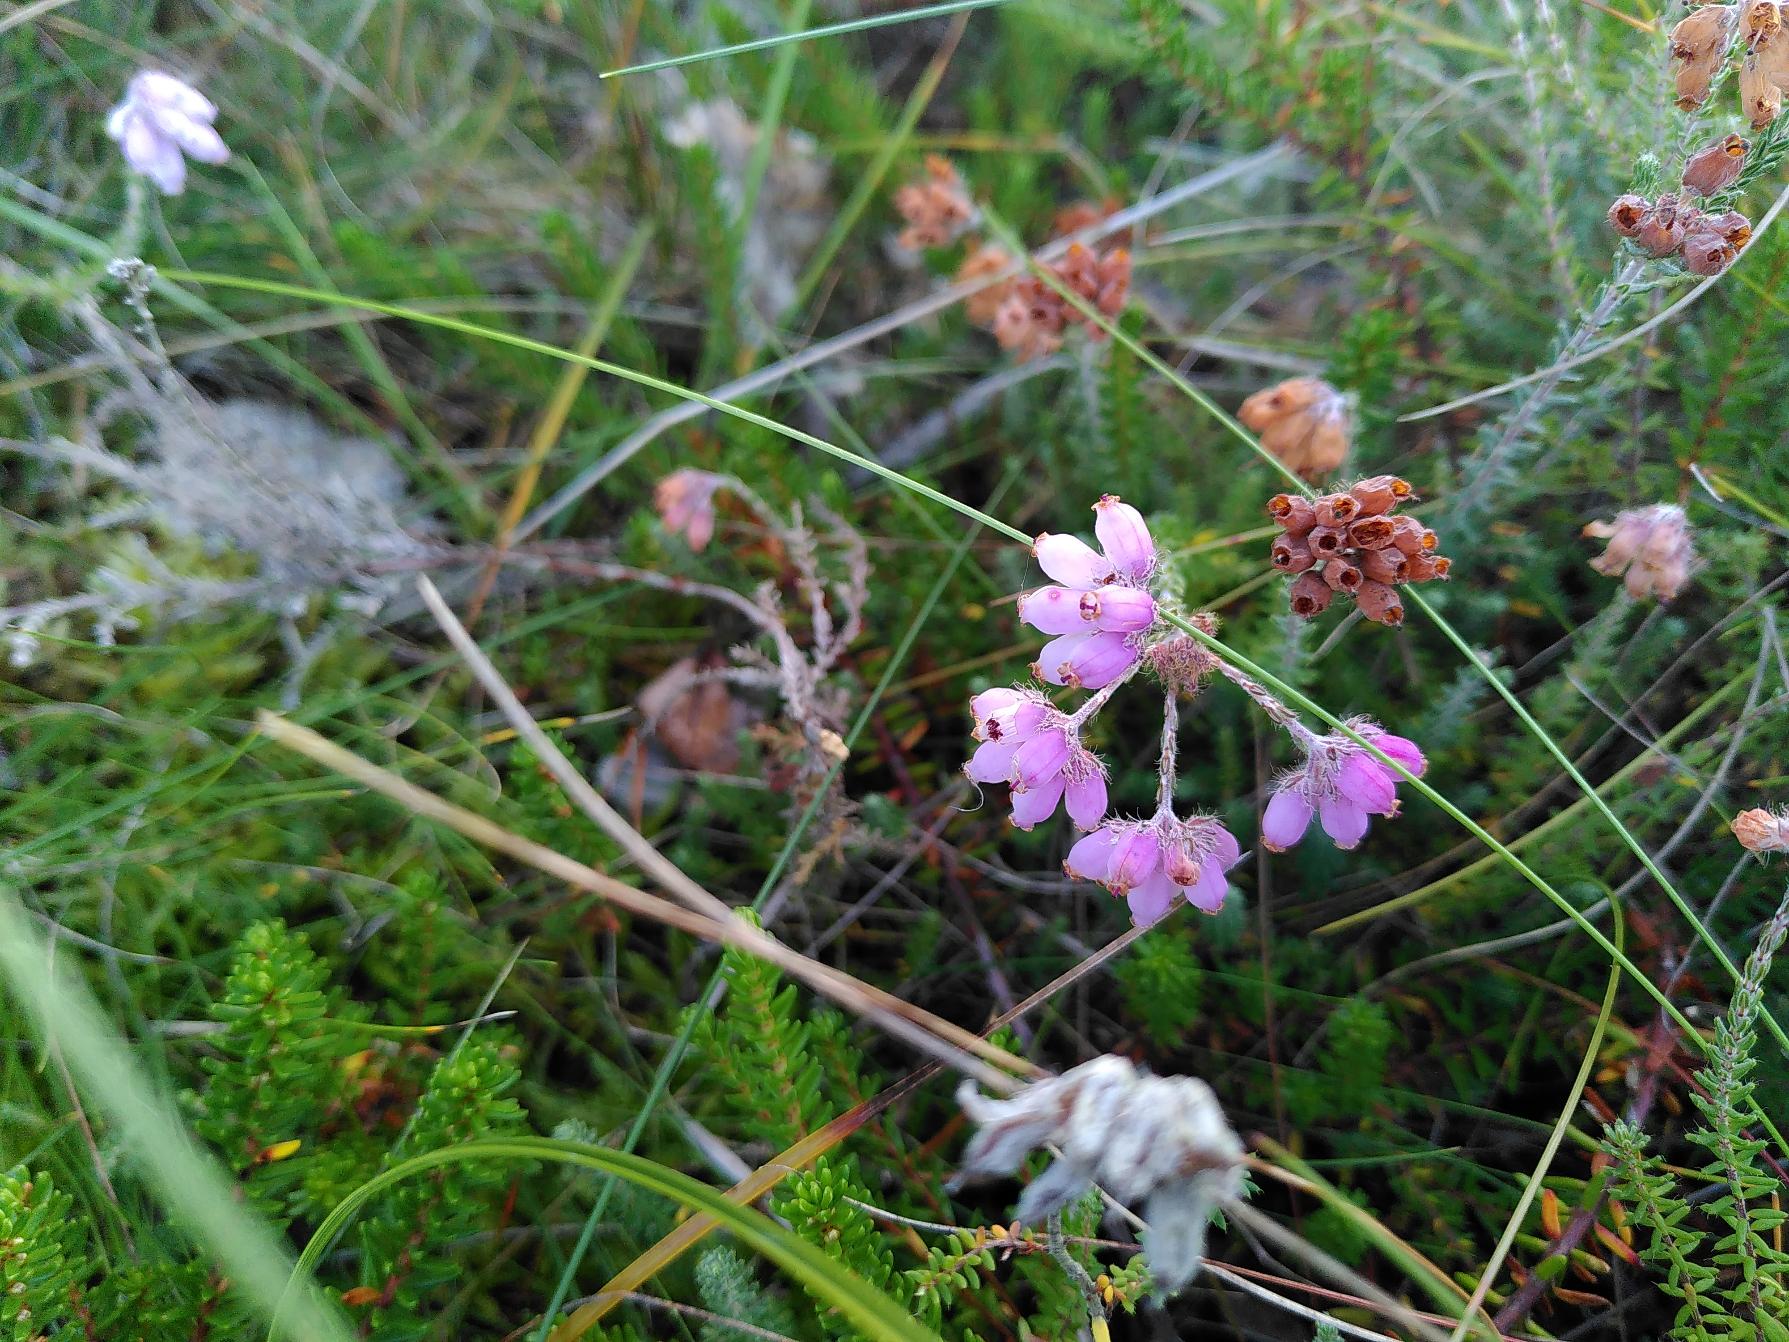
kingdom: Plantae
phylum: Tracheophyta
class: Magnoliopsida
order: Ericales
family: Ericaceae
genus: Erica
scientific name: Erica tetralix
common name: Klokkelyng
